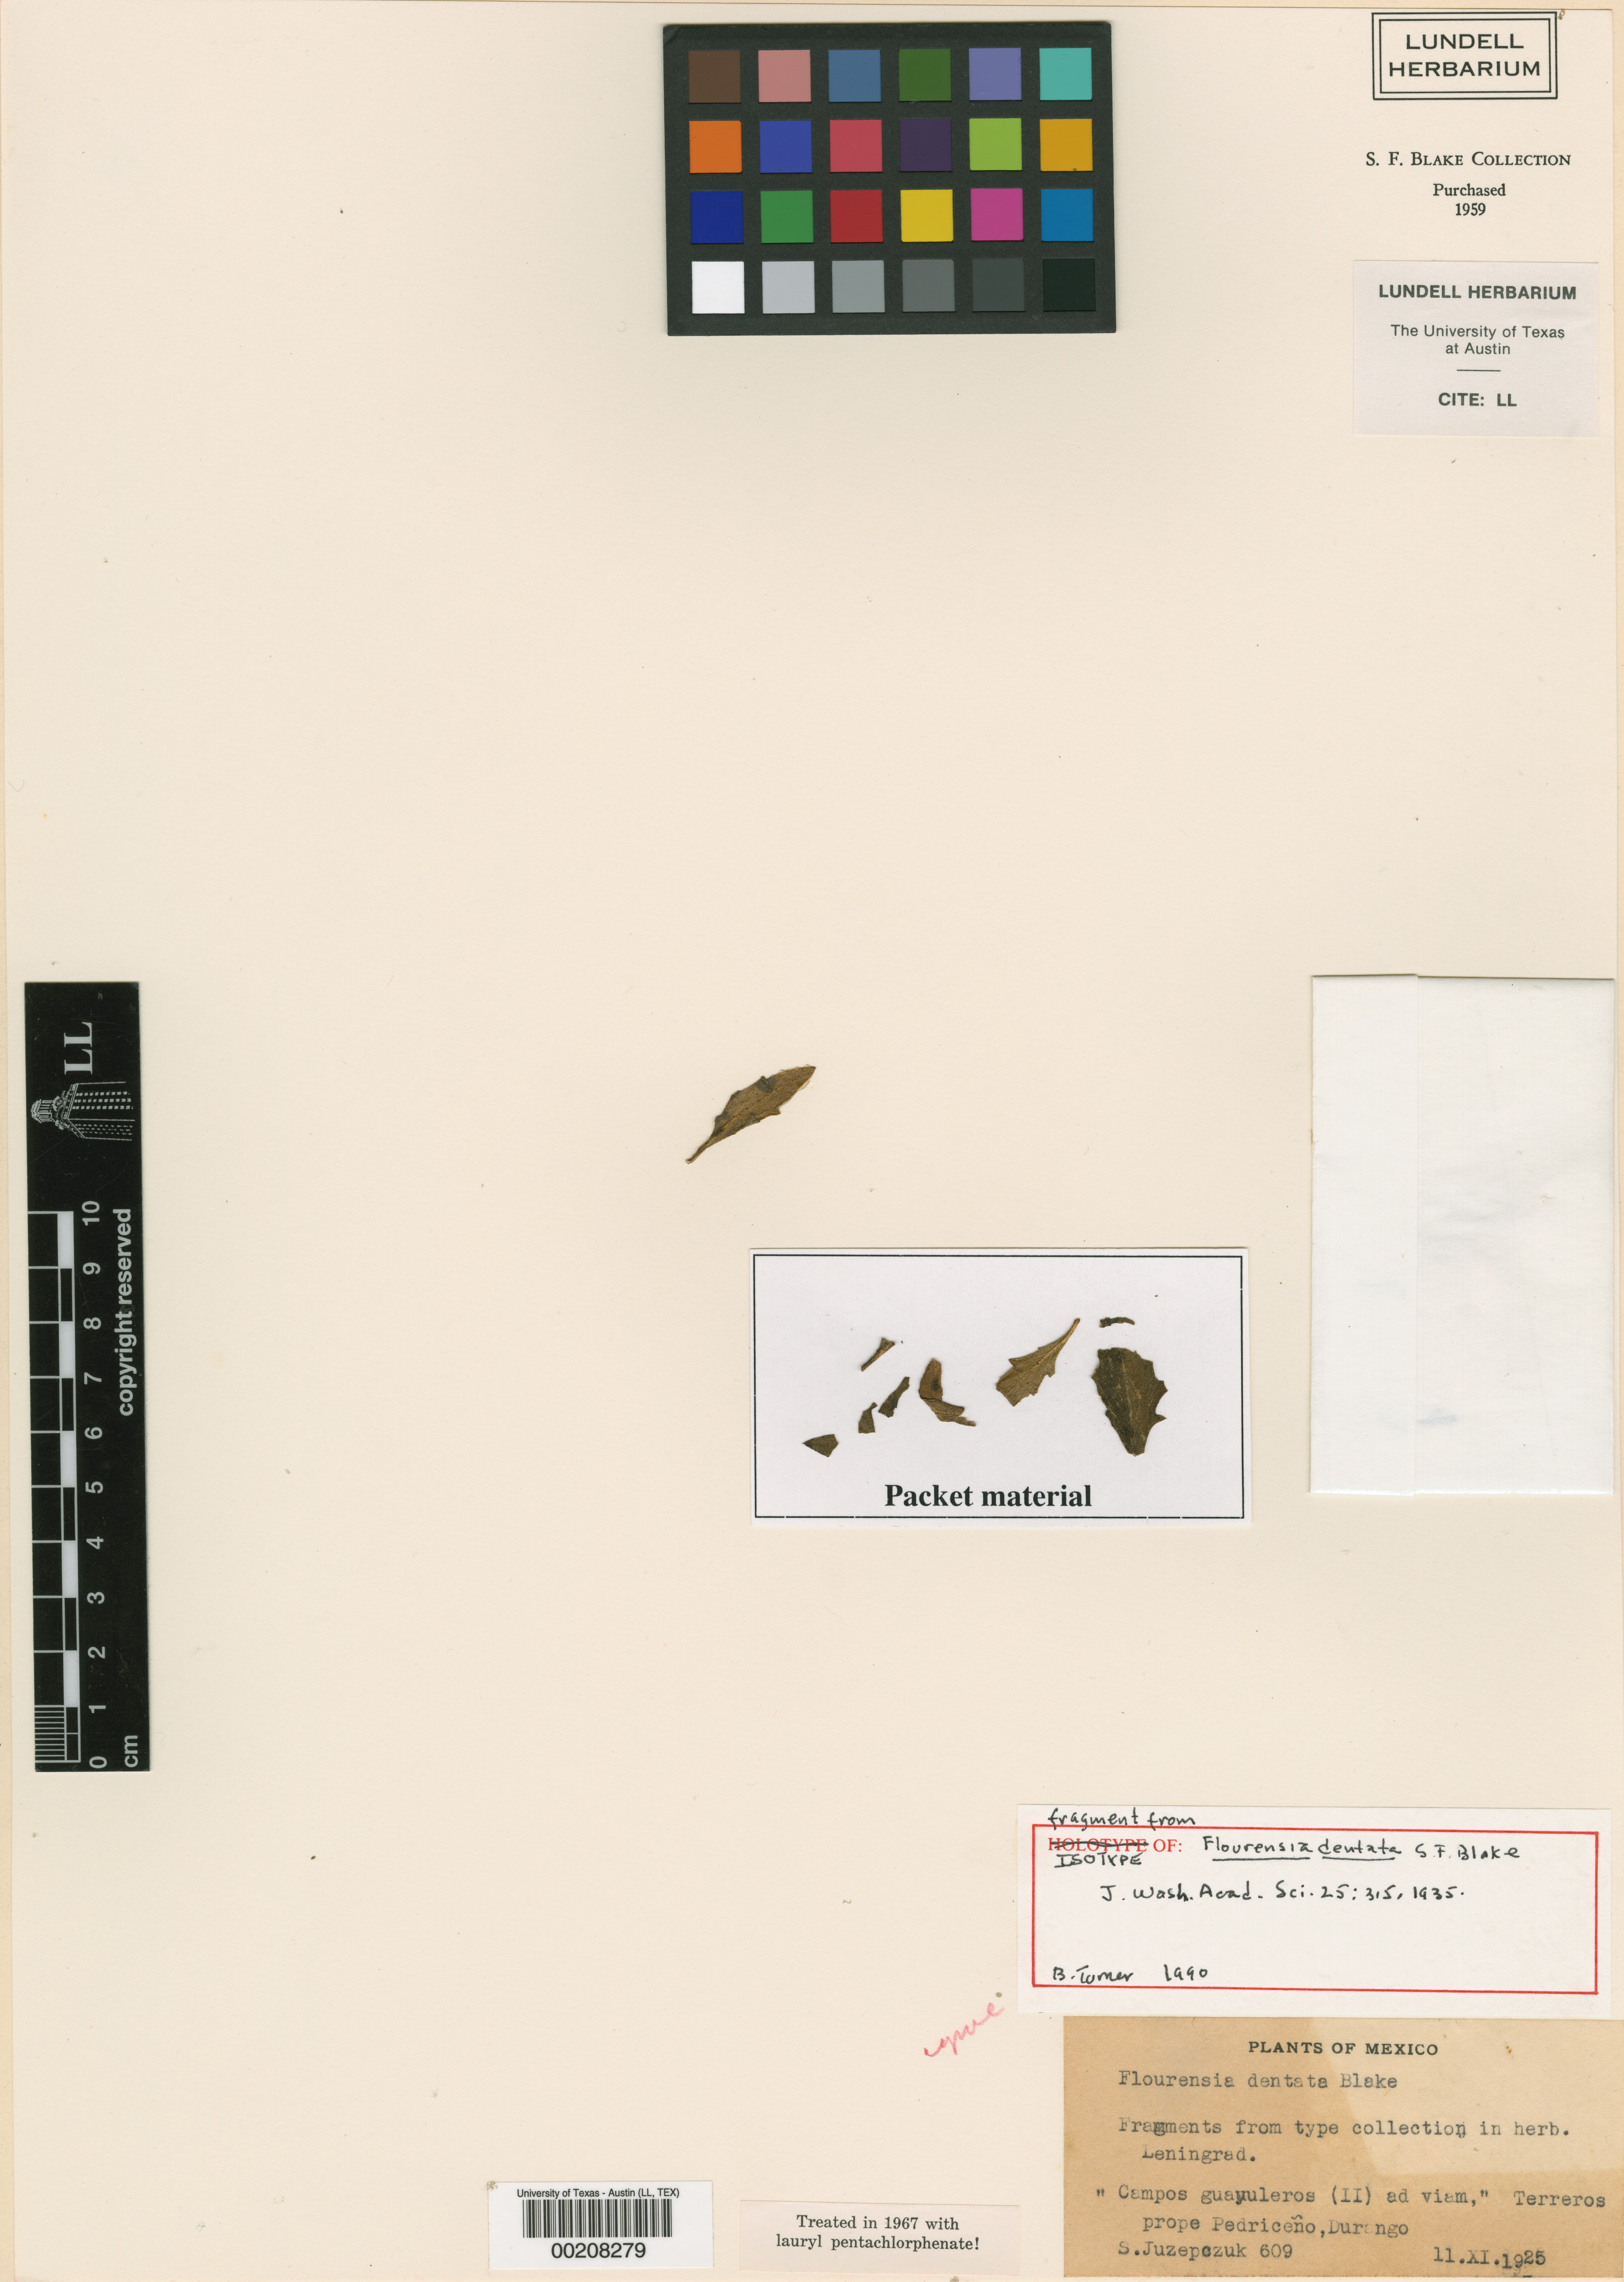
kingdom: Plantae
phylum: Tracheophyta
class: Magnoliopsida
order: Asterales
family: Asteraceae
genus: Flourensia
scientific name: Flourensia dentata
